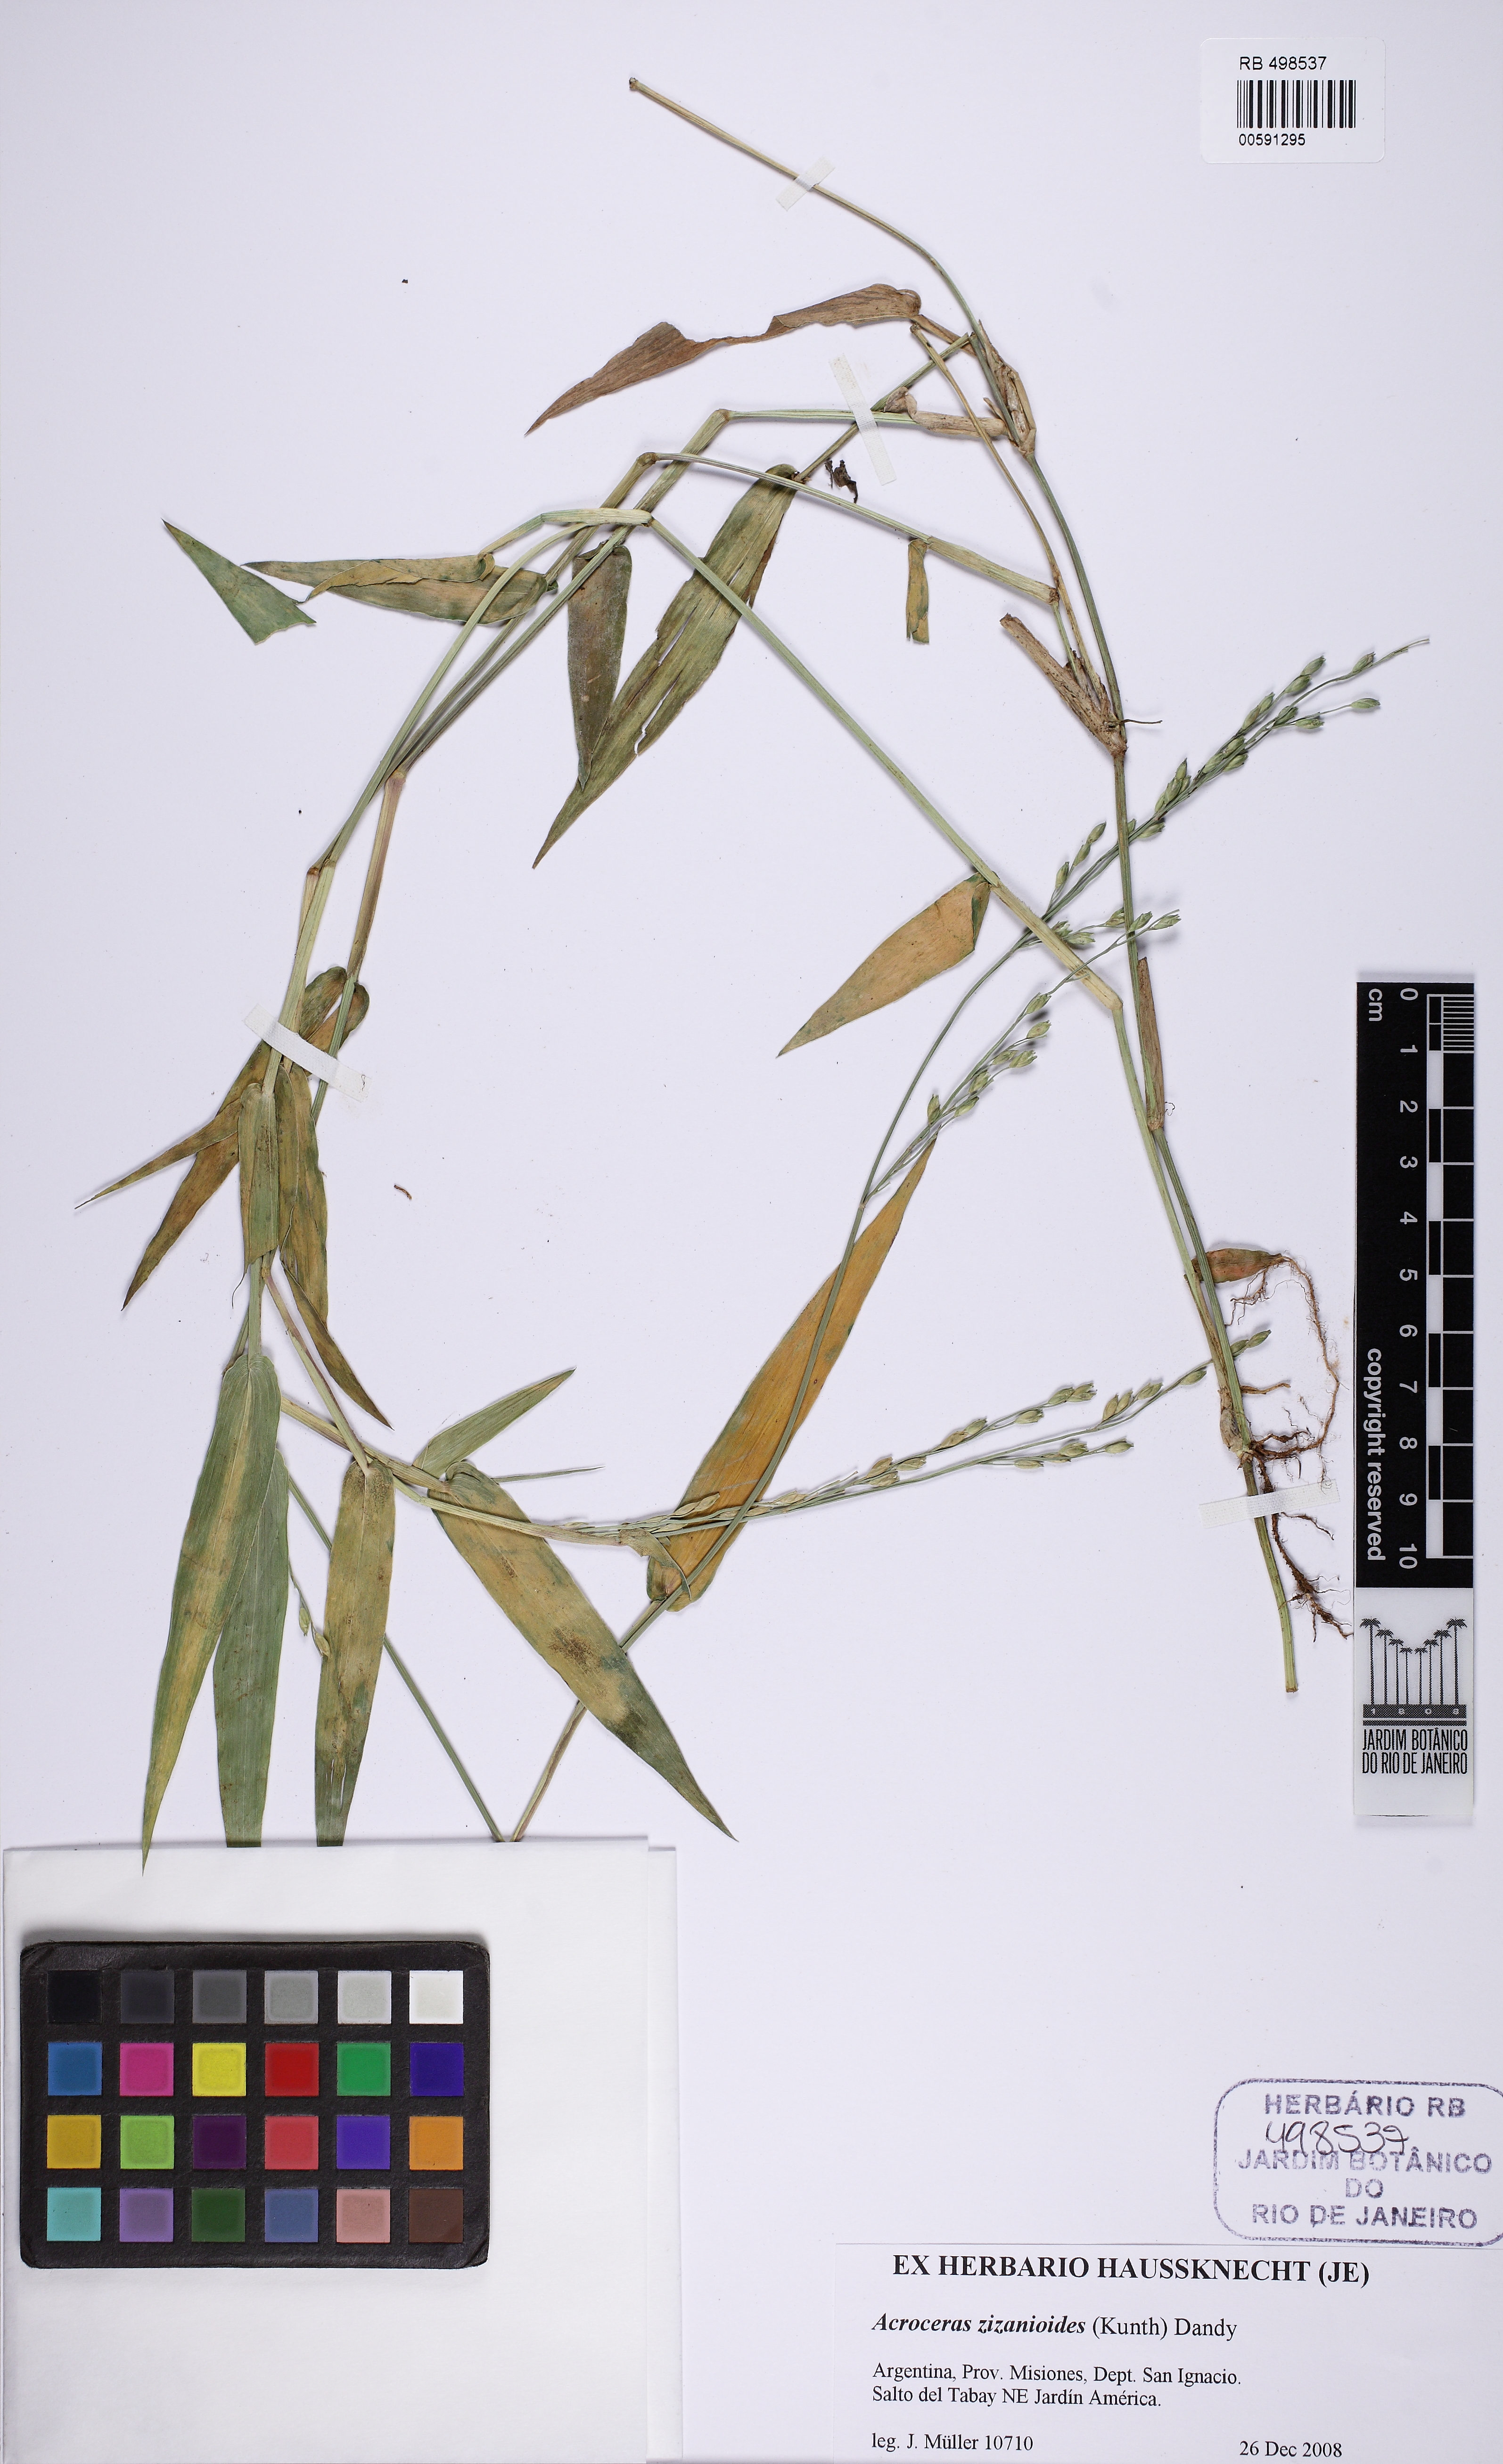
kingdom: Plantae
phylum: Tracheophyta
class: Liliopsida
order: Poales
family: Poaceae
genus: Acroceras
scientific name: Acroceras zizanioides
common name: Oat grass
